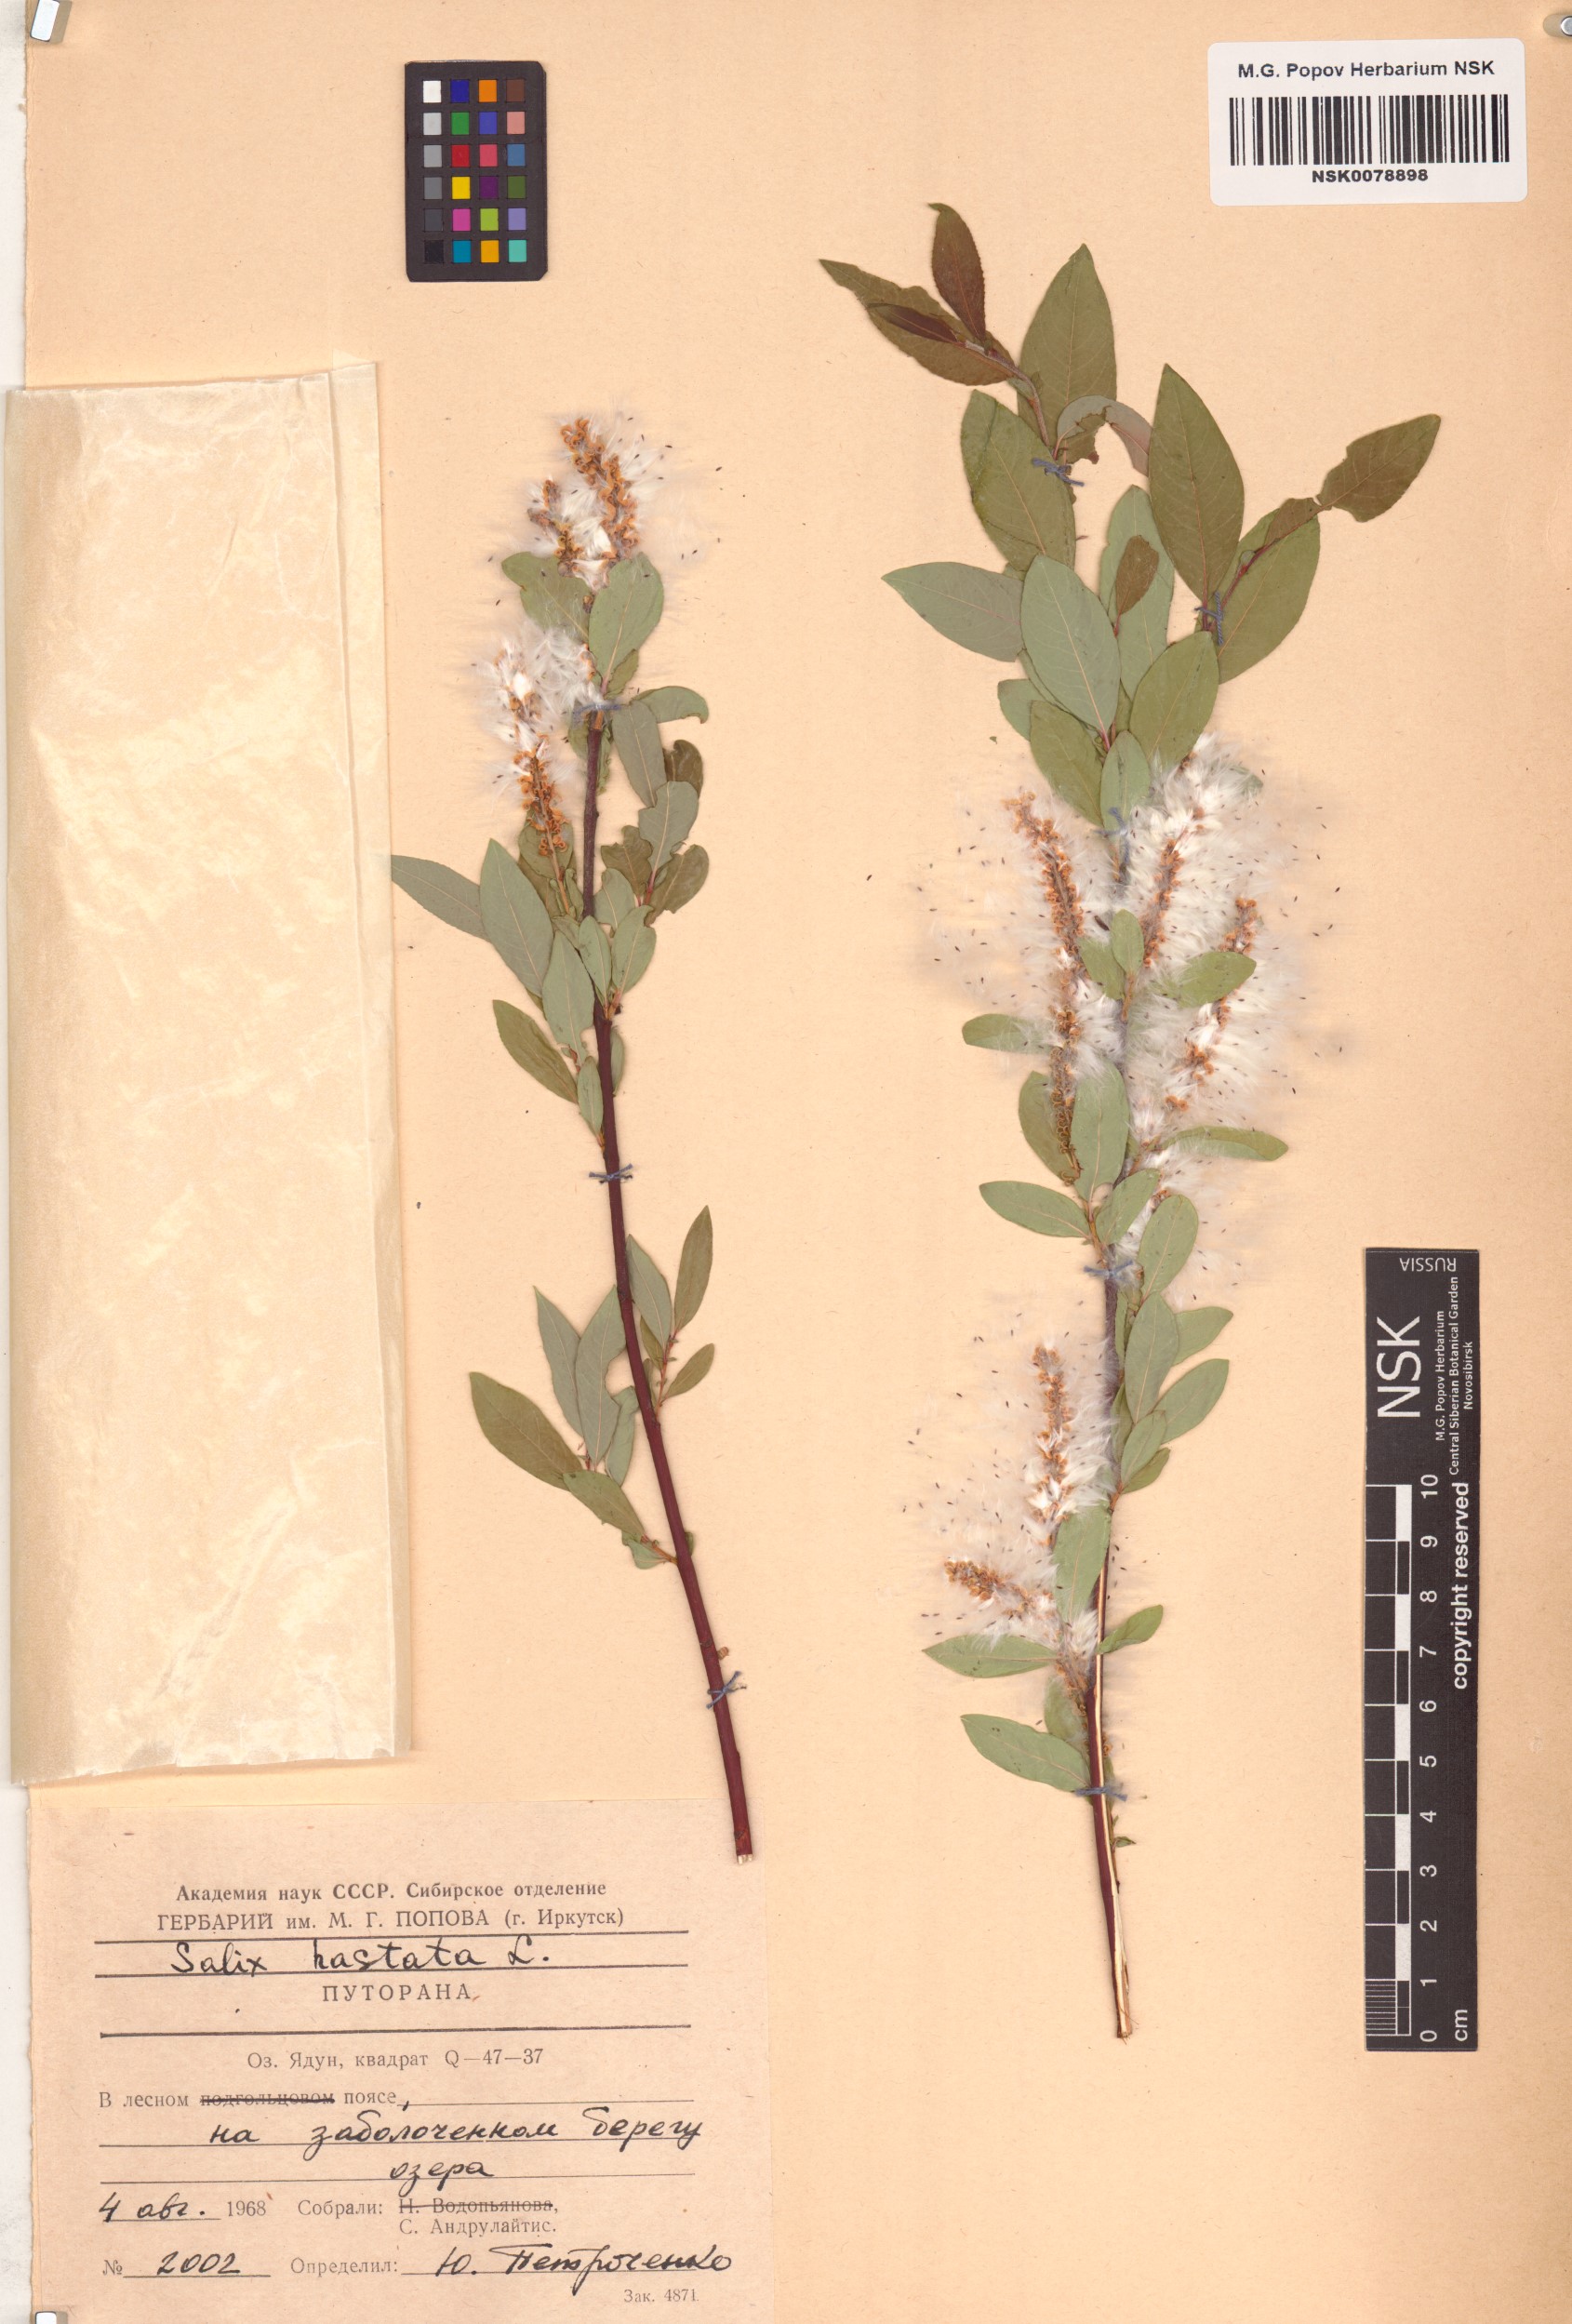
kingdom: Plantae
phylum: Tracheophyta
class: Magnoliopsida
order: Malpighiales
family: Salicaceae
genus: Salix
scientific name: Salix hastata
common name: Halberd willow
